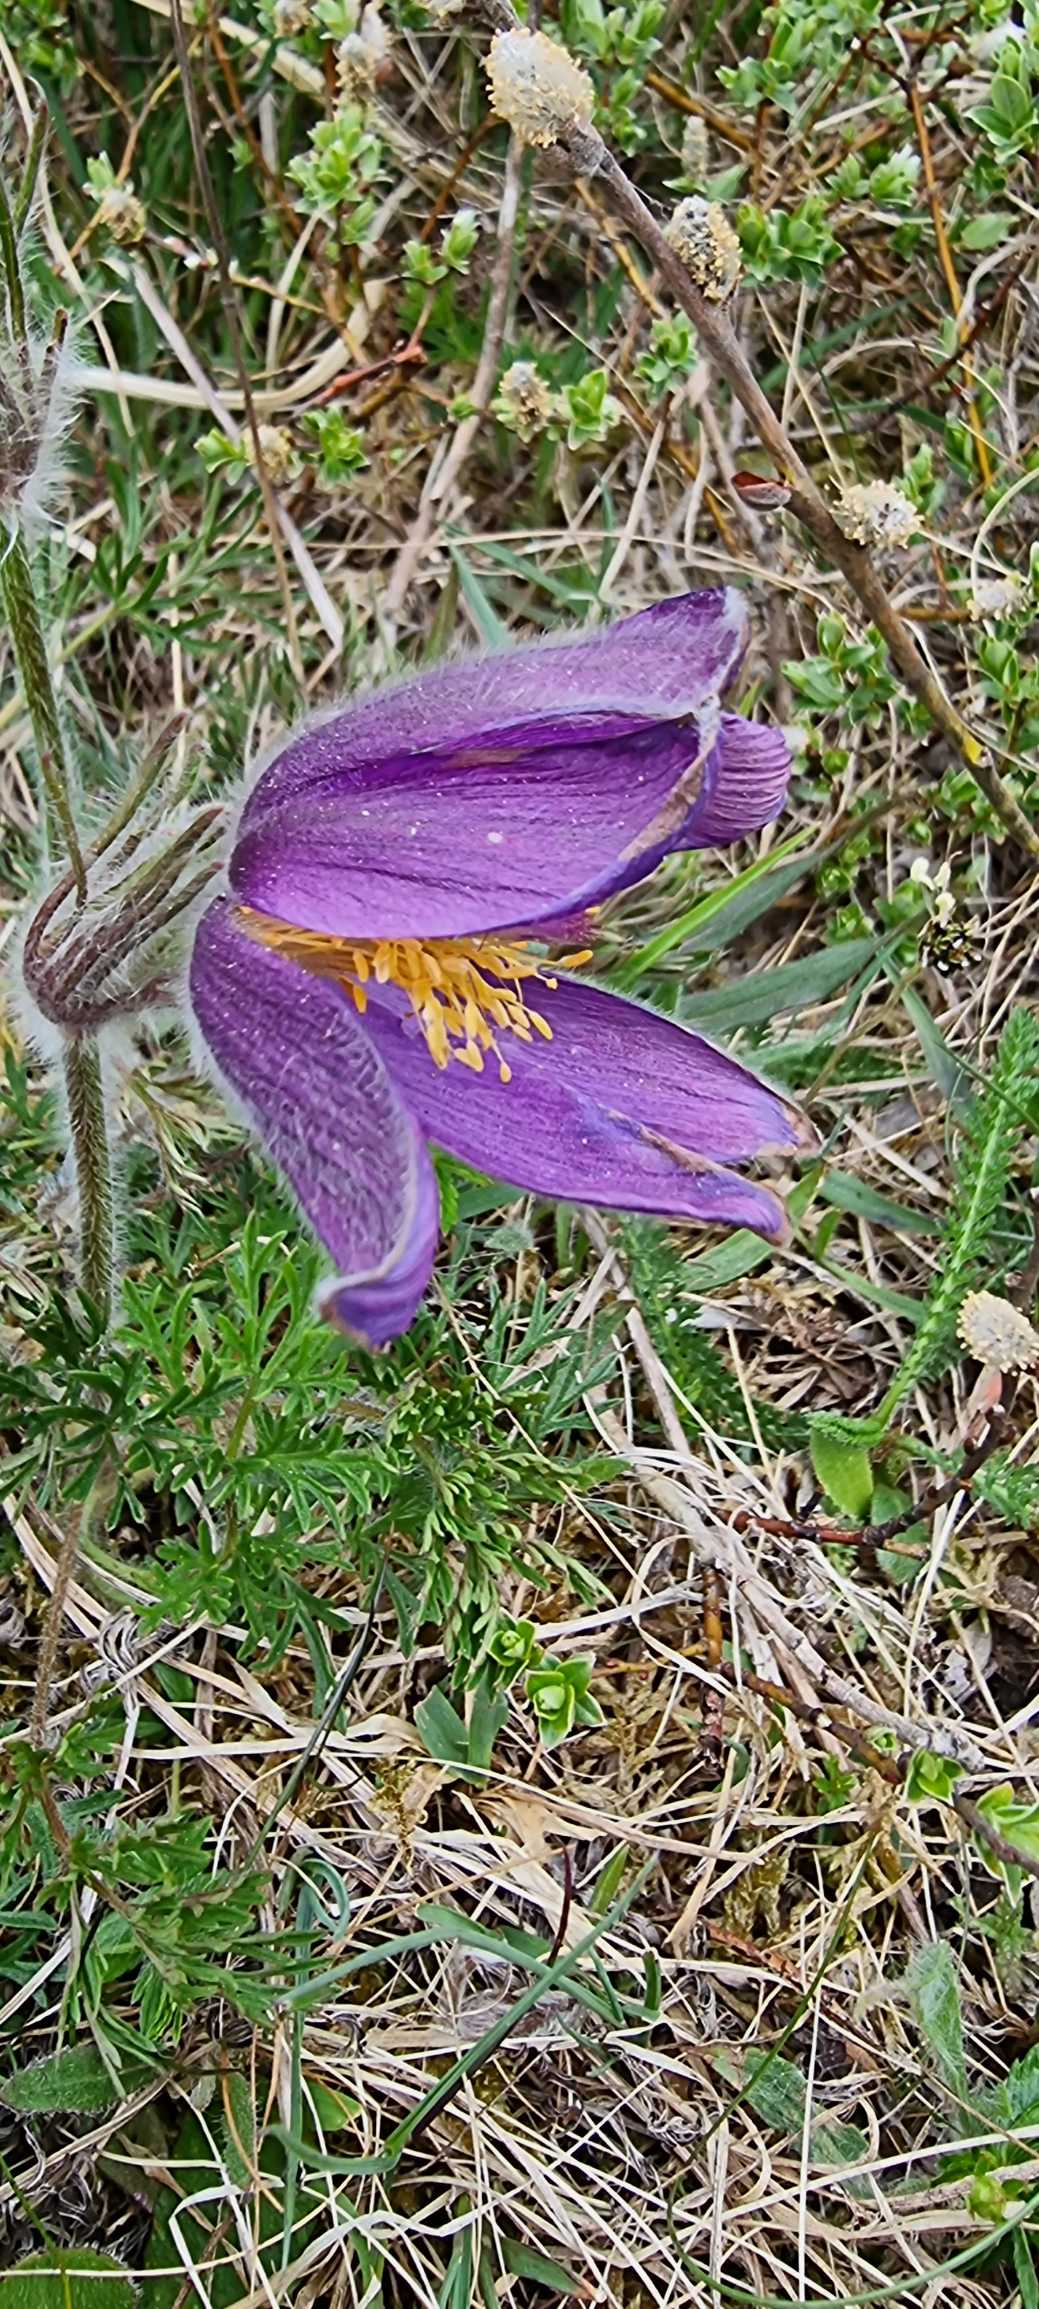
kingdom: Plantae
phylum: Tracheophyta
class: Magnoliopsida
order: Ranunculales
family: Ranunculaceae
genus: Pulsatilla
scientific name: Pulsatilla vulgaris
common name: Opret kobjælde
